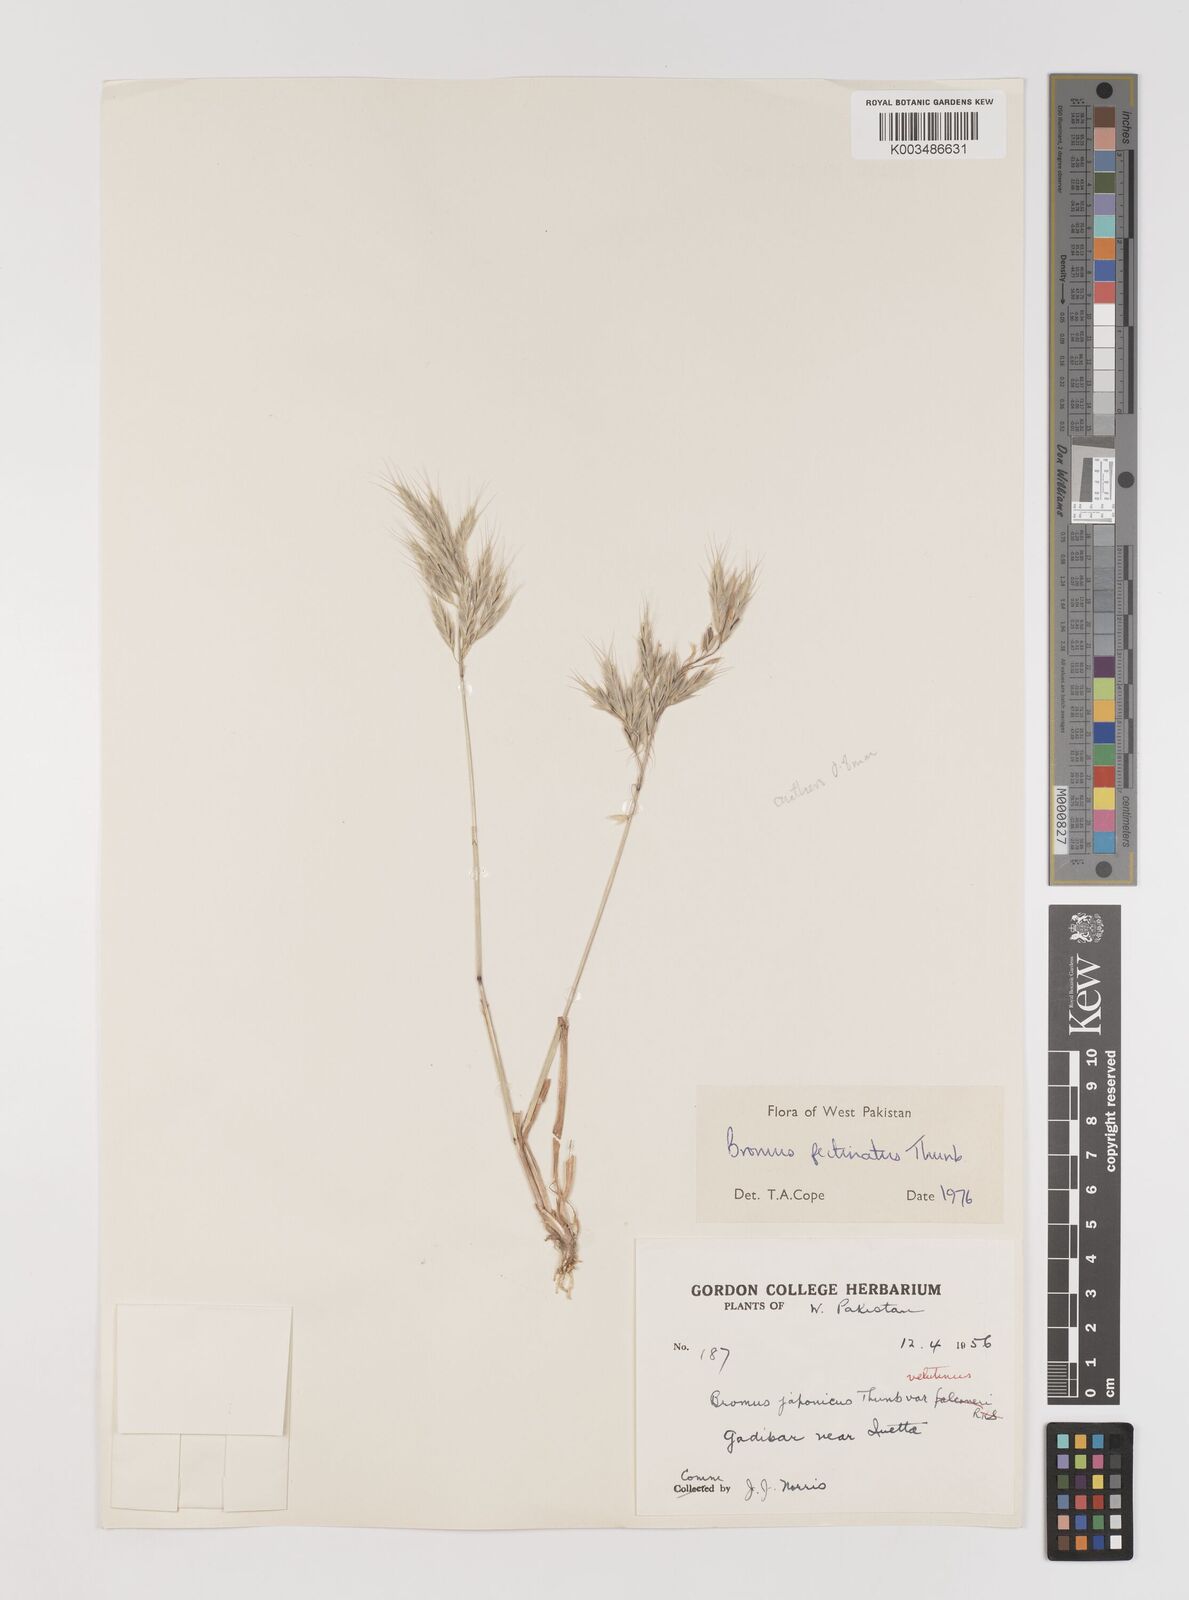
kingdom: Plantae
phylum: Tracheophyta
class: Liliopsida
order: Poales
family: Poaceae
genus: Bromus
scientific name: Bromus pectinatus
